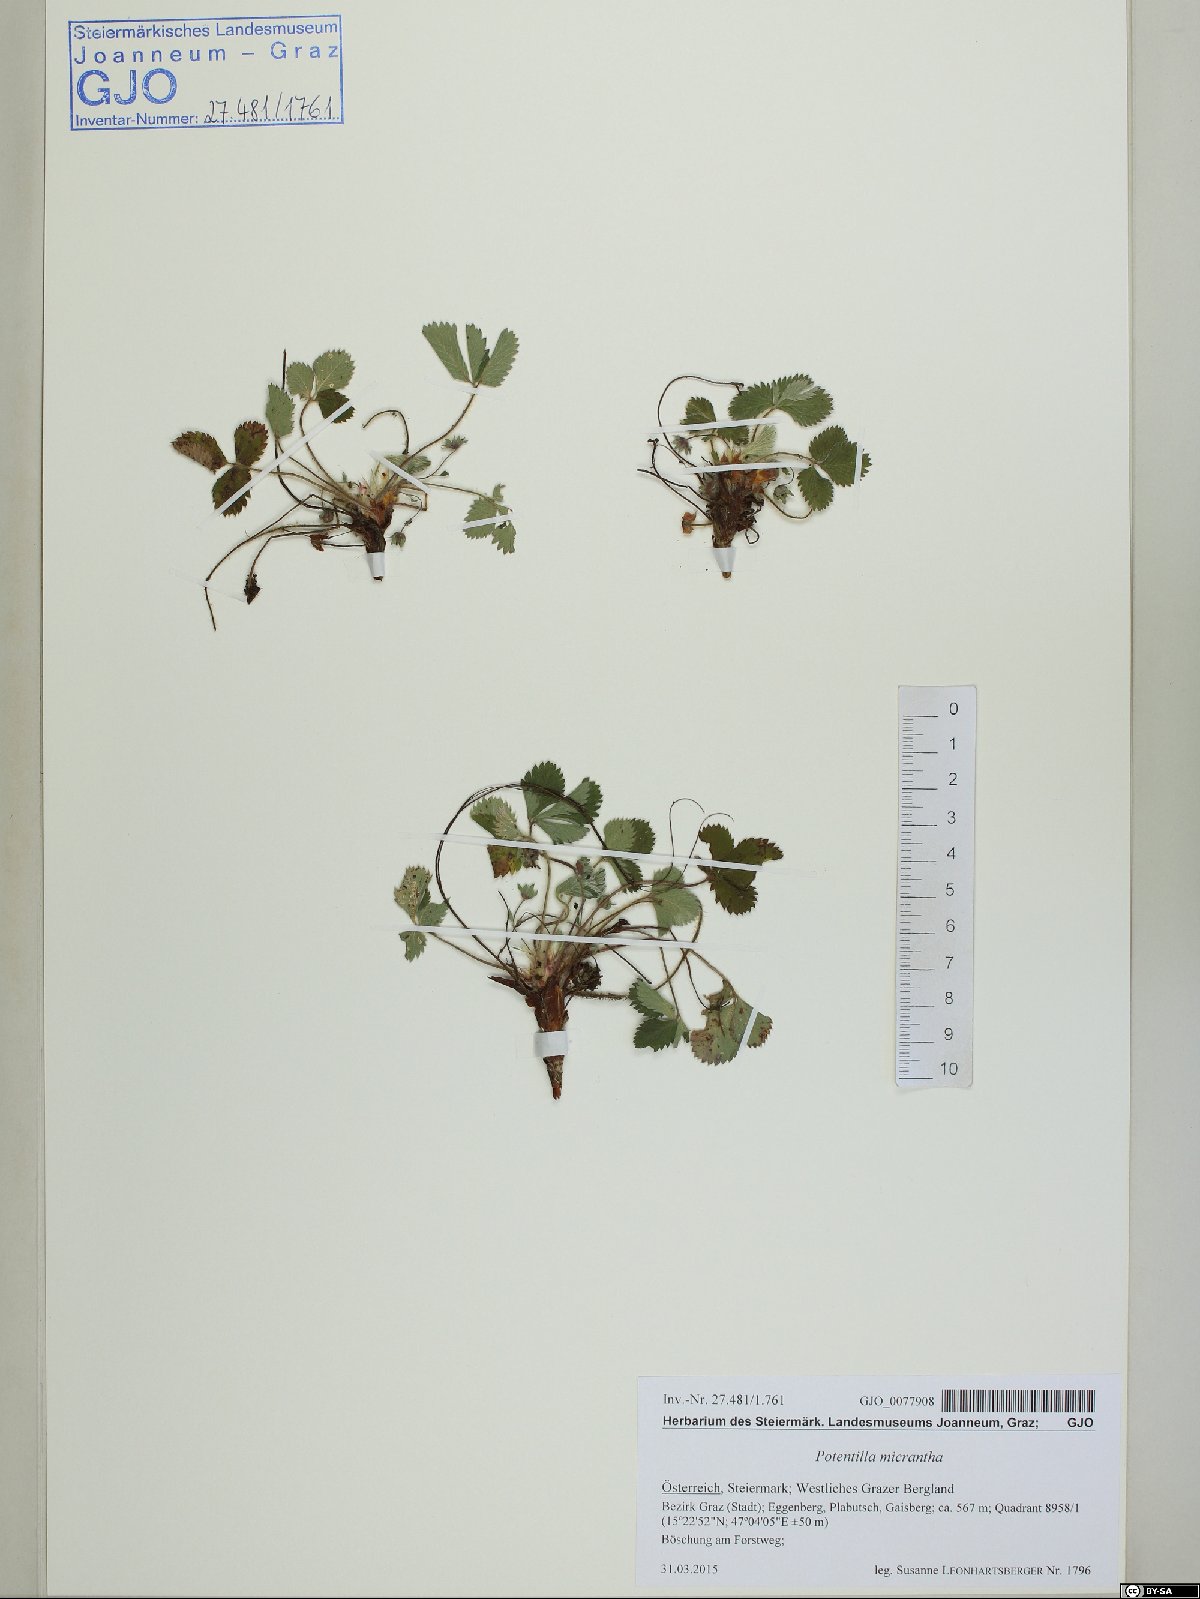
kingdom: Plantae
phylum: Tracheophyta
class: Magnoliopsida
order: Rosales
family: Rosaceae
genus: Potentilla
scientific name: Potentilla micrantha
